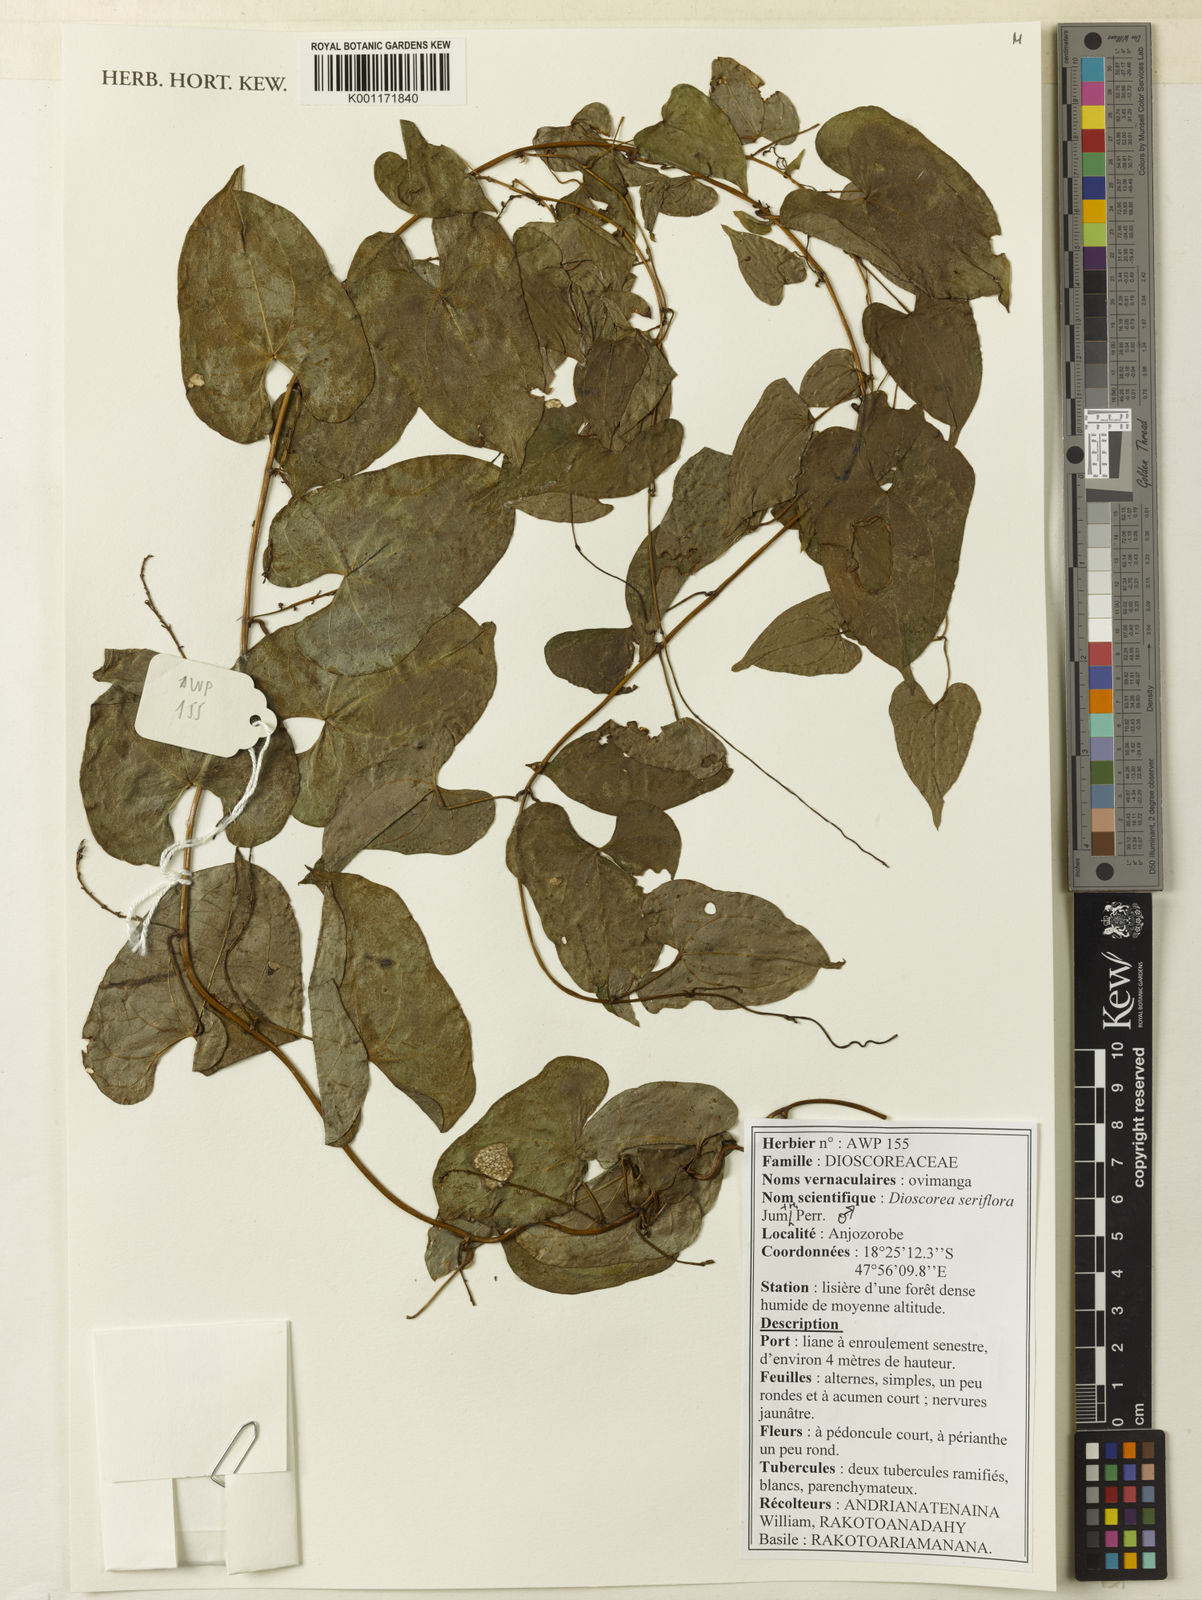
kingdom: Plantae
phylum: Tracheophyta
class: Liliopsida
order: Dioscoreales
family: Dioscoreaceae
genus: Dioscorea
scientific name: Dioscorea seriflora
